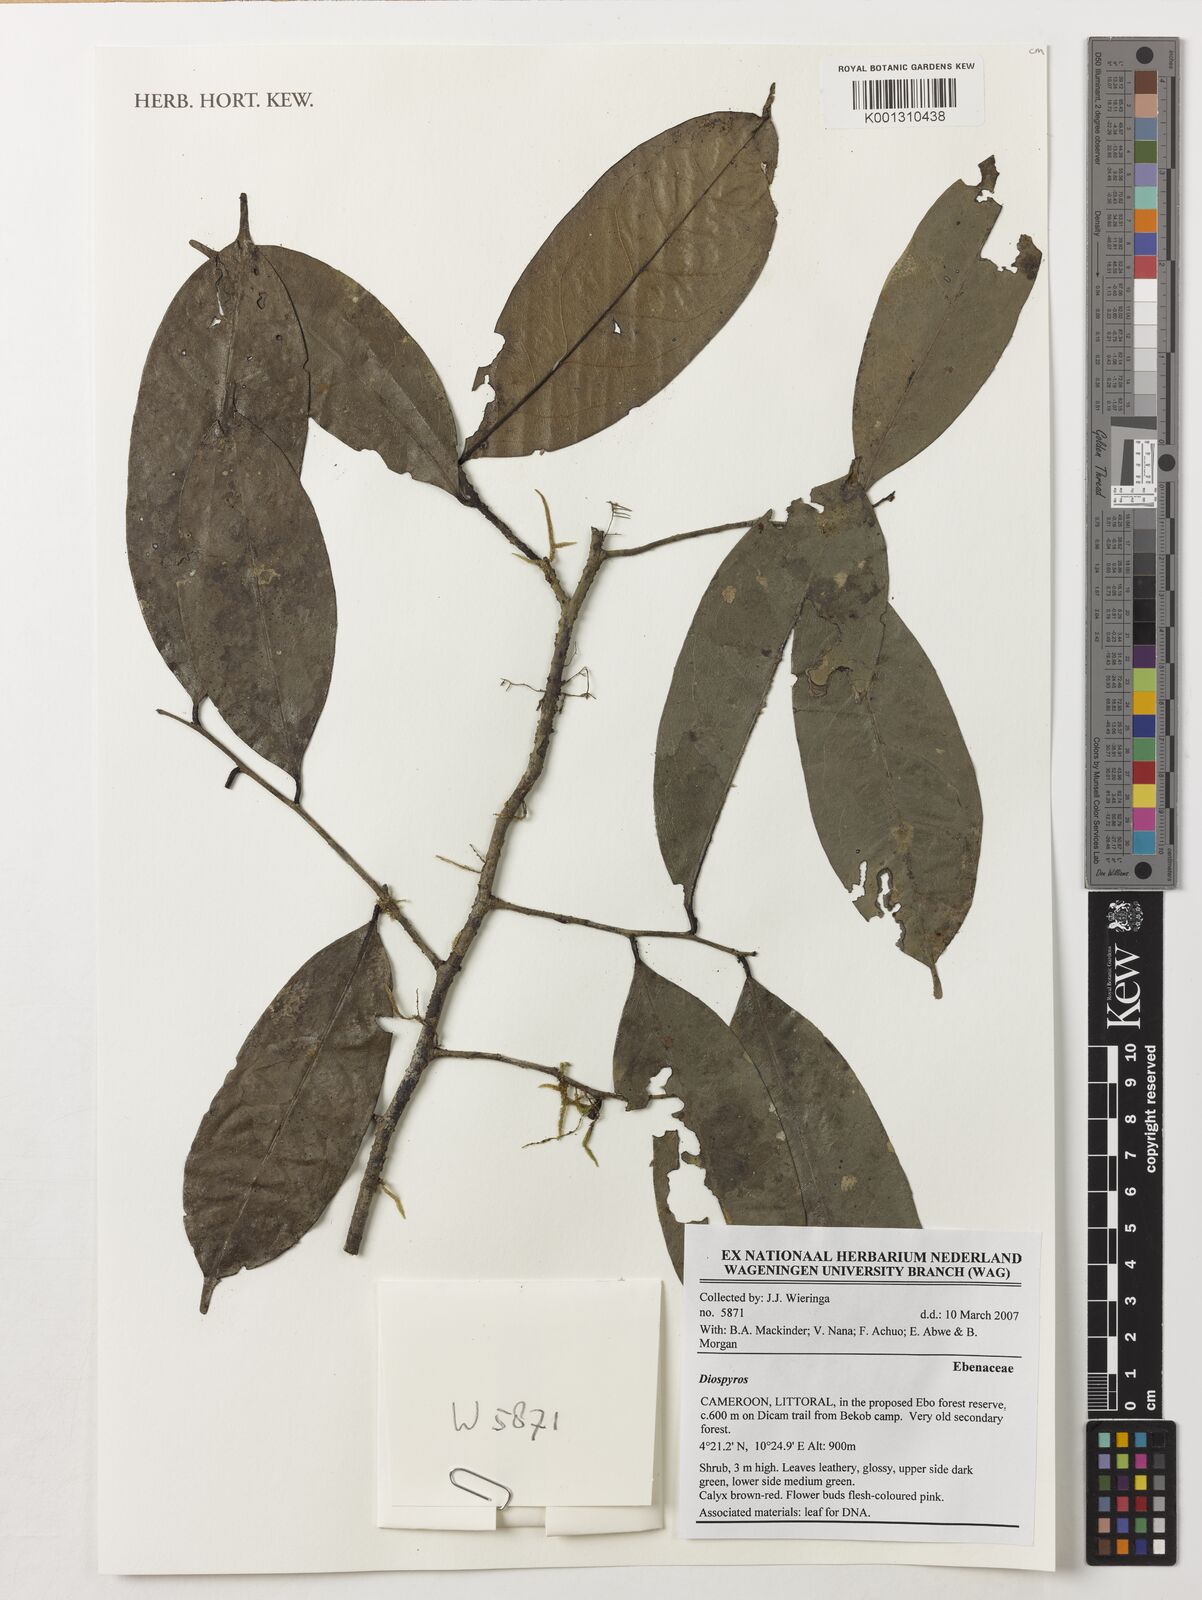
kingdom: Plantae
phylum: Tracheophyta
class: Magnoliopsida
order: Ericales
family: Ebenaceae
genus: Diospyros
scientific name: Diospyros
